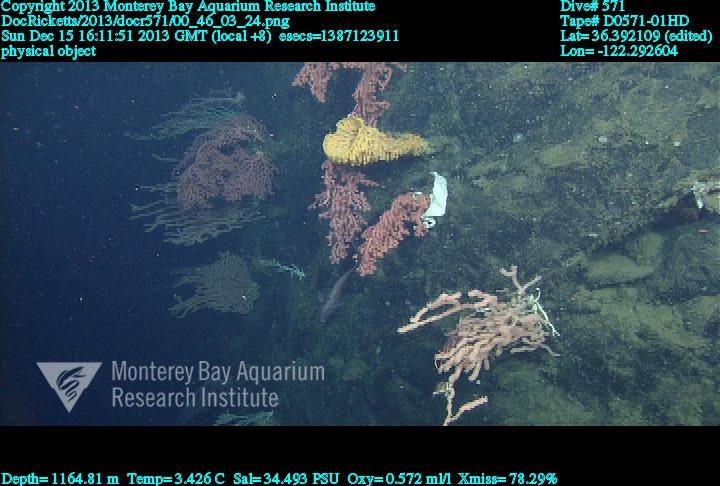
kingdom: Animalia
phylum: Porifera
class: Hexactinellida
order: Sceptrulophora
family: Aphrocallistidae
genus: Heterochone
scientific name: Heterochone calyx
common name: Fingered goblet glass sponge
